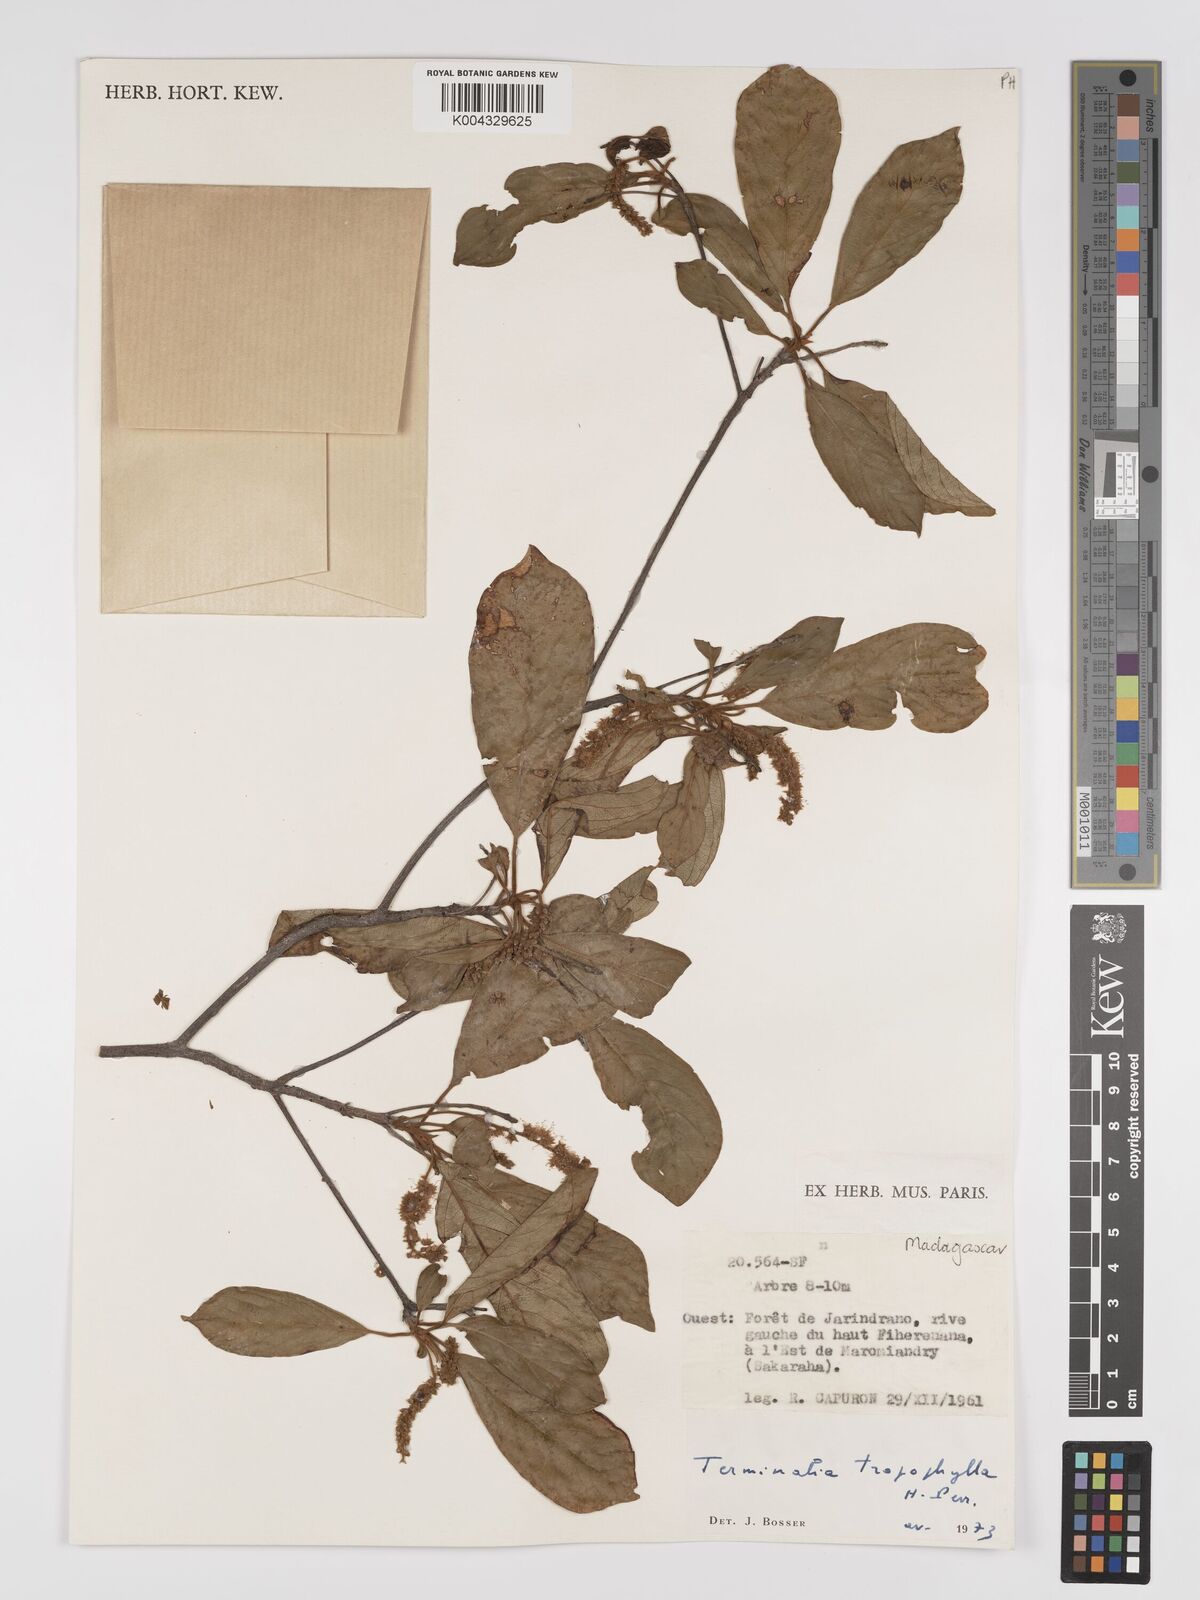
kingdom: Plantae
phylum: Tracheophyta
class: Magnoliopsida
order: Myrtales
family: Combretaceae
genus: Terminalia
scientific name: Terminalia tropophylla
